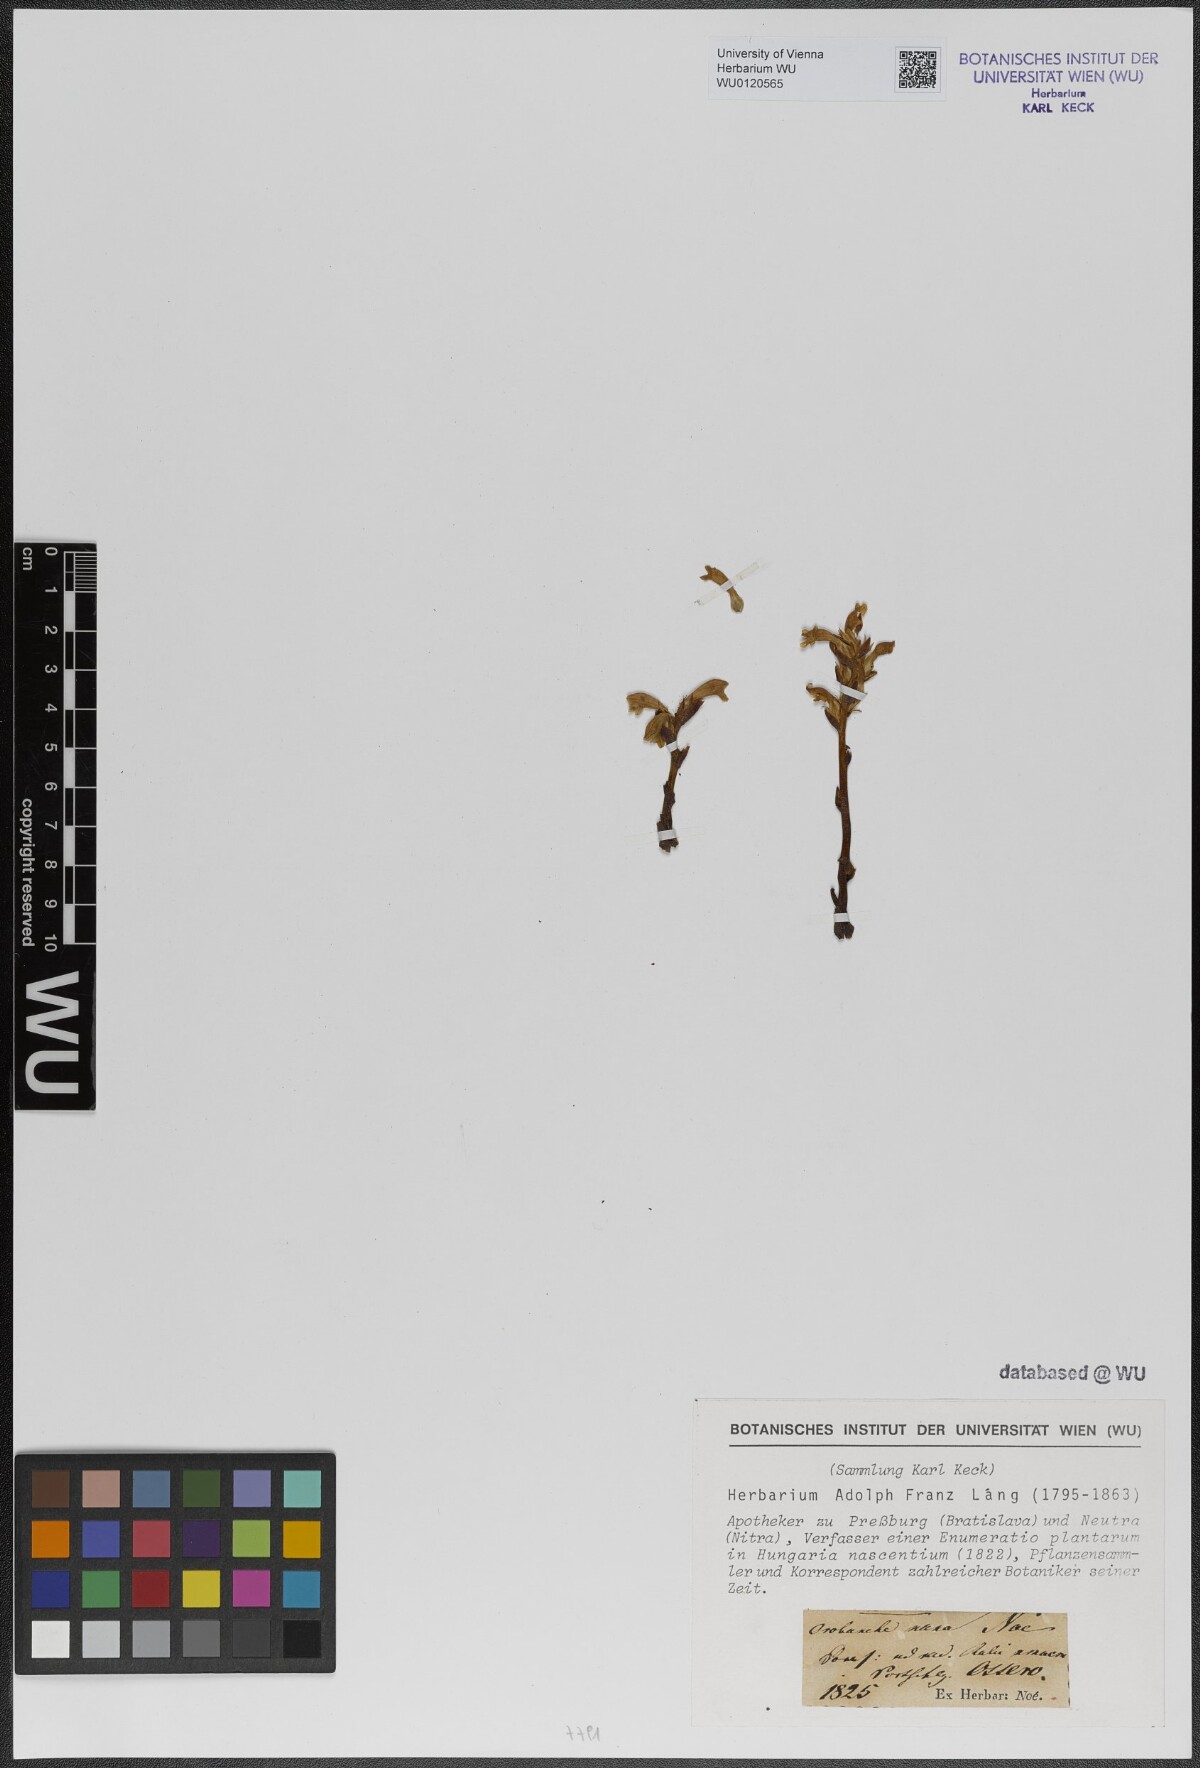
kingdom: Plantae
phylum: Tracheophyta
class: Magnoliopsida
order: Lamiales
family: Orobanchaceae
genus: Phelipanche
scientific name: Phelipanche mutelii
